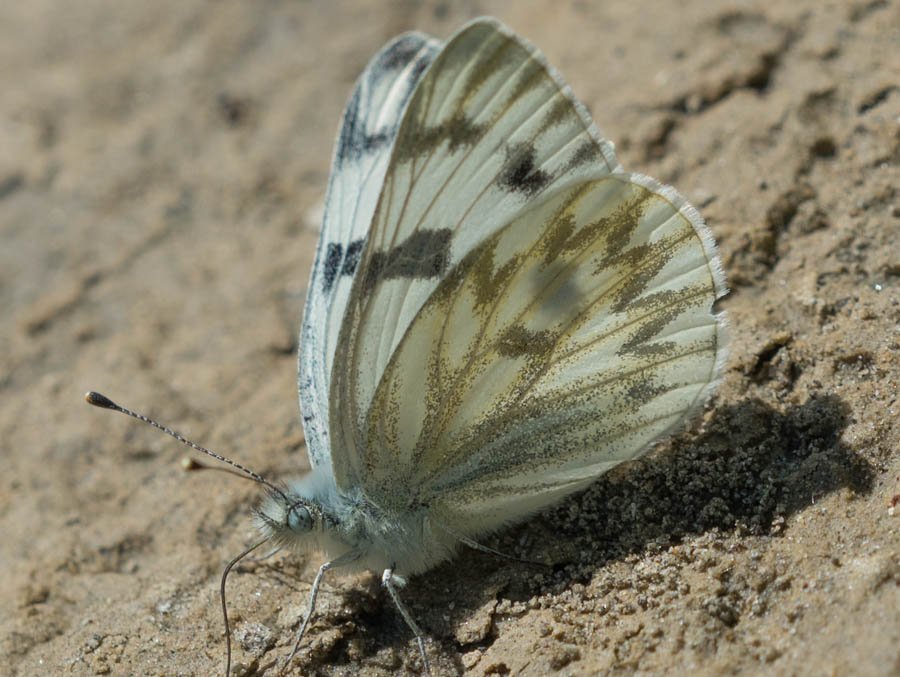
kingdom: Animalia
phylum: Arthropoda
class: Insecta
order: Lepidoptera
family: Pieridae
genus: Pontia
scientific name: Pontia occidentalis
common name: Western White
